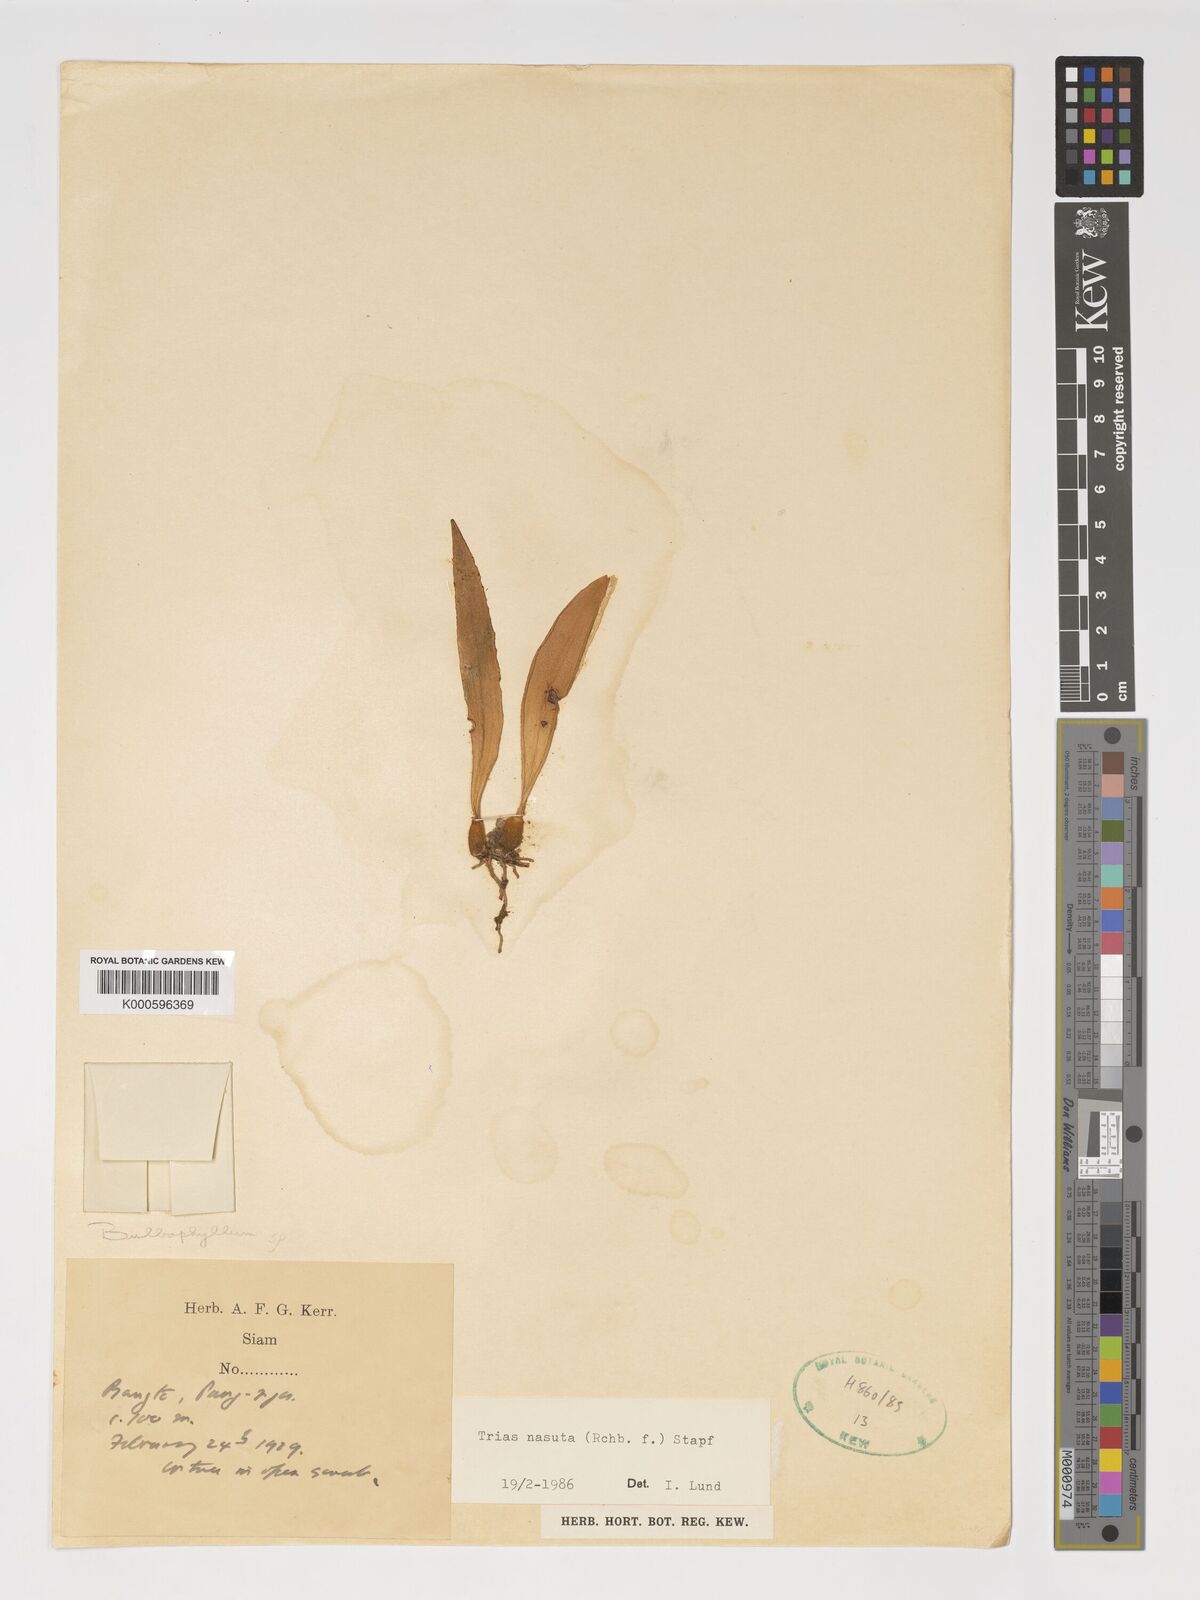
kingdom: Plantae
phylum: Tracheophyta
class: Liliopsida
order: Asparagales
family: Orchidaceae
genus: Coelogyne
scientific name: Coelogyne
